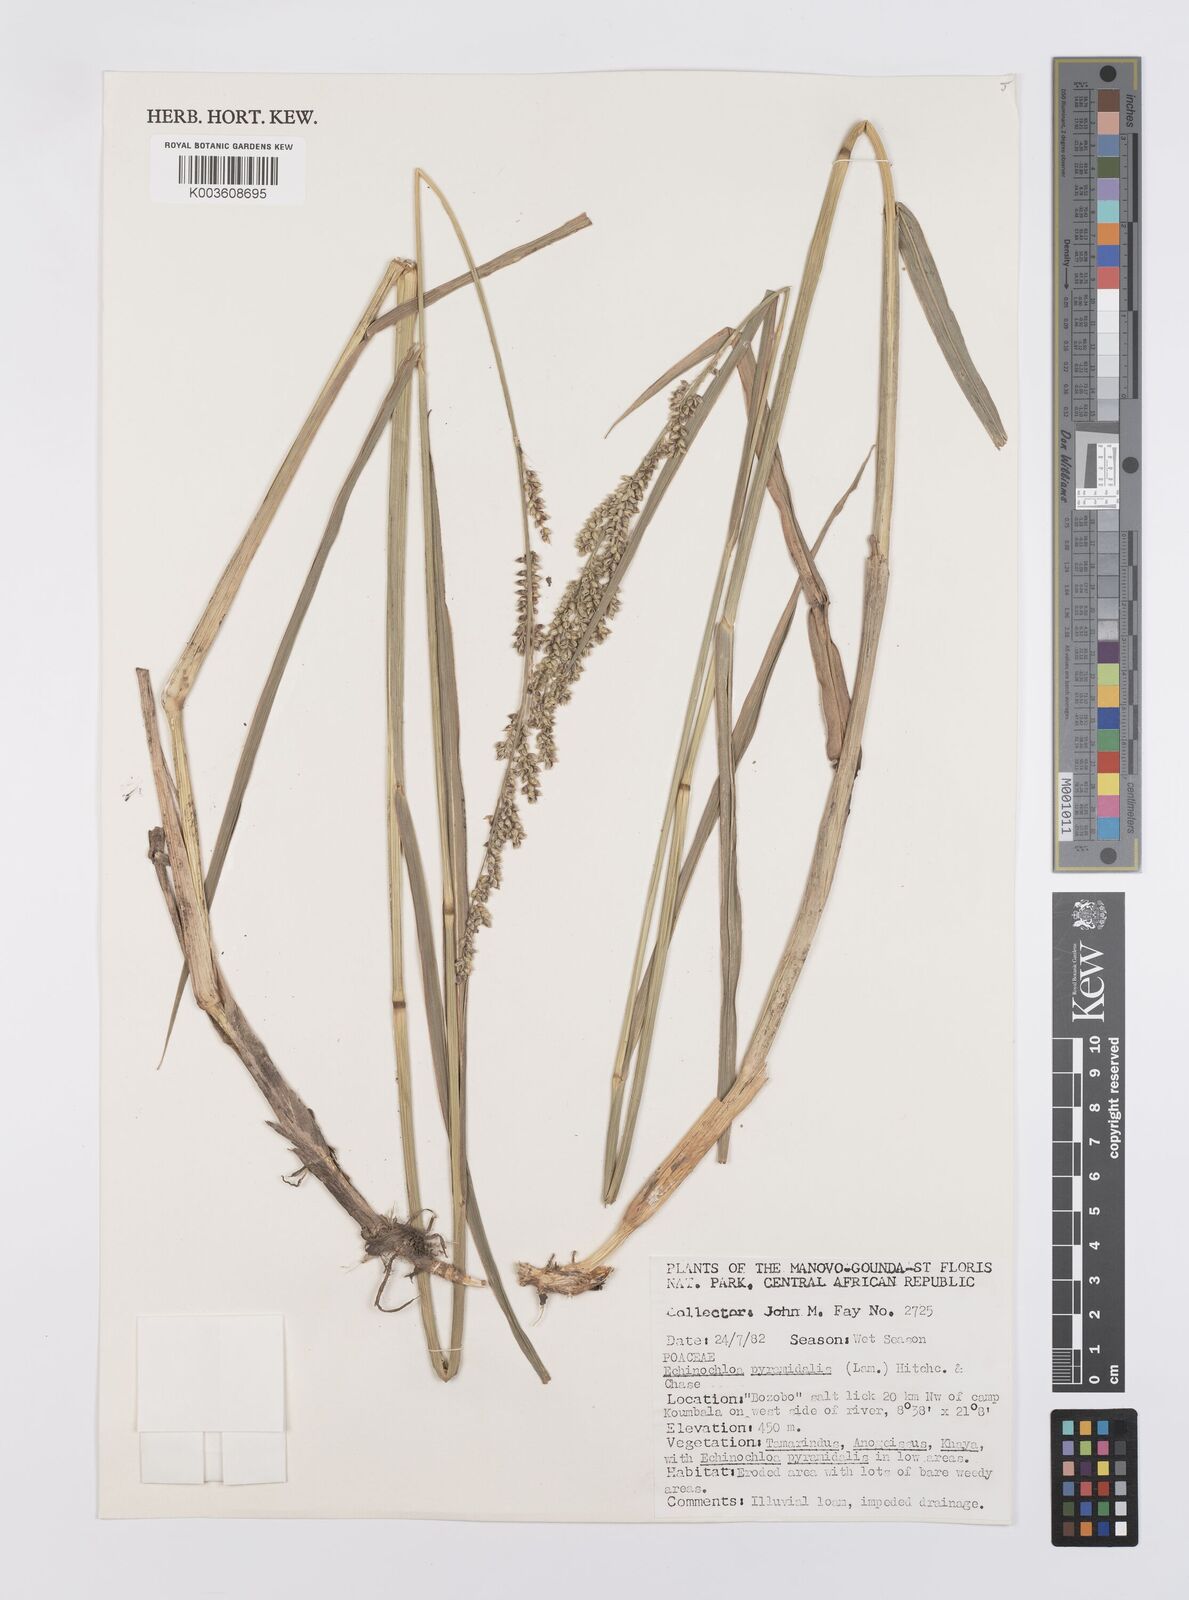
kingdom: Plantae
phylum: Tracheophyta
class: Liliopsida
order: Poales
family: Poaceae
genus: Echinochloa
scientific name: Echinochloa pyramidalis
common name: Antelope grass
